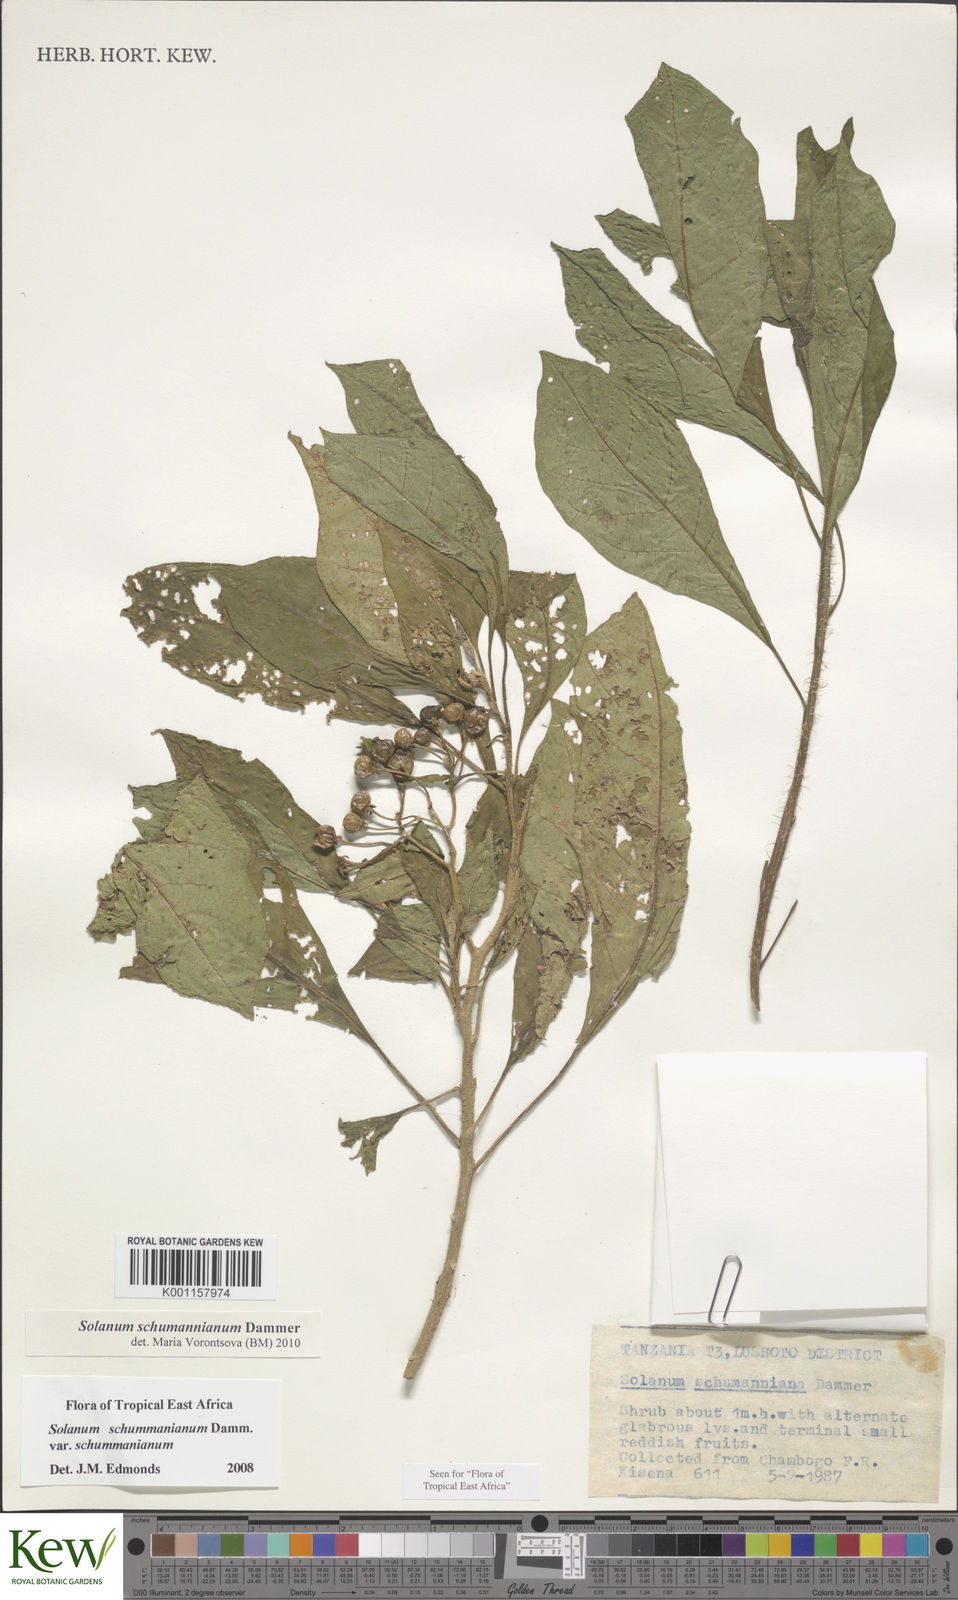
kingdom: Plantae
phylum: Tracheophyta
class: Magnoliopsida
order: Solanales
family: Solanaceae
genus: Solanum
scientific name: Solanum schumannianum
